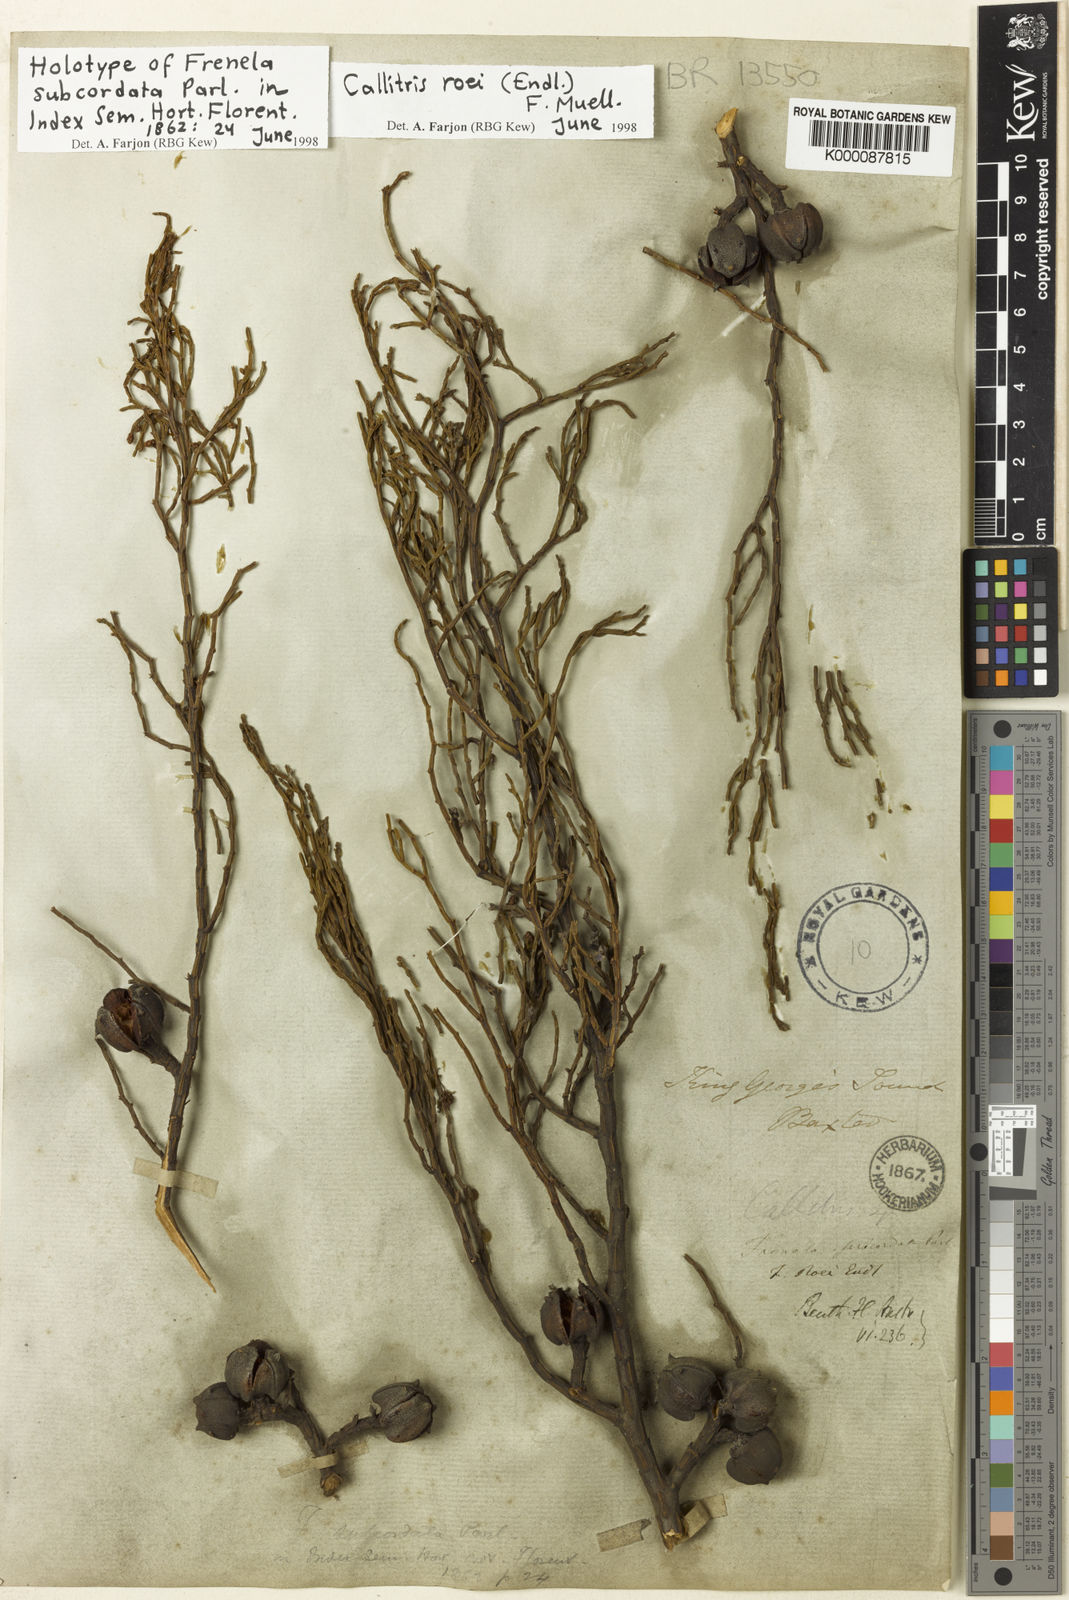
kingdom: Plantae
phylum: Tracheophyta
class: Pinopsida
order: Pinales
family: Cupressaceae
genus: Callitris
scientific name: Callitris roei
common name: Roe's cypress-pine
